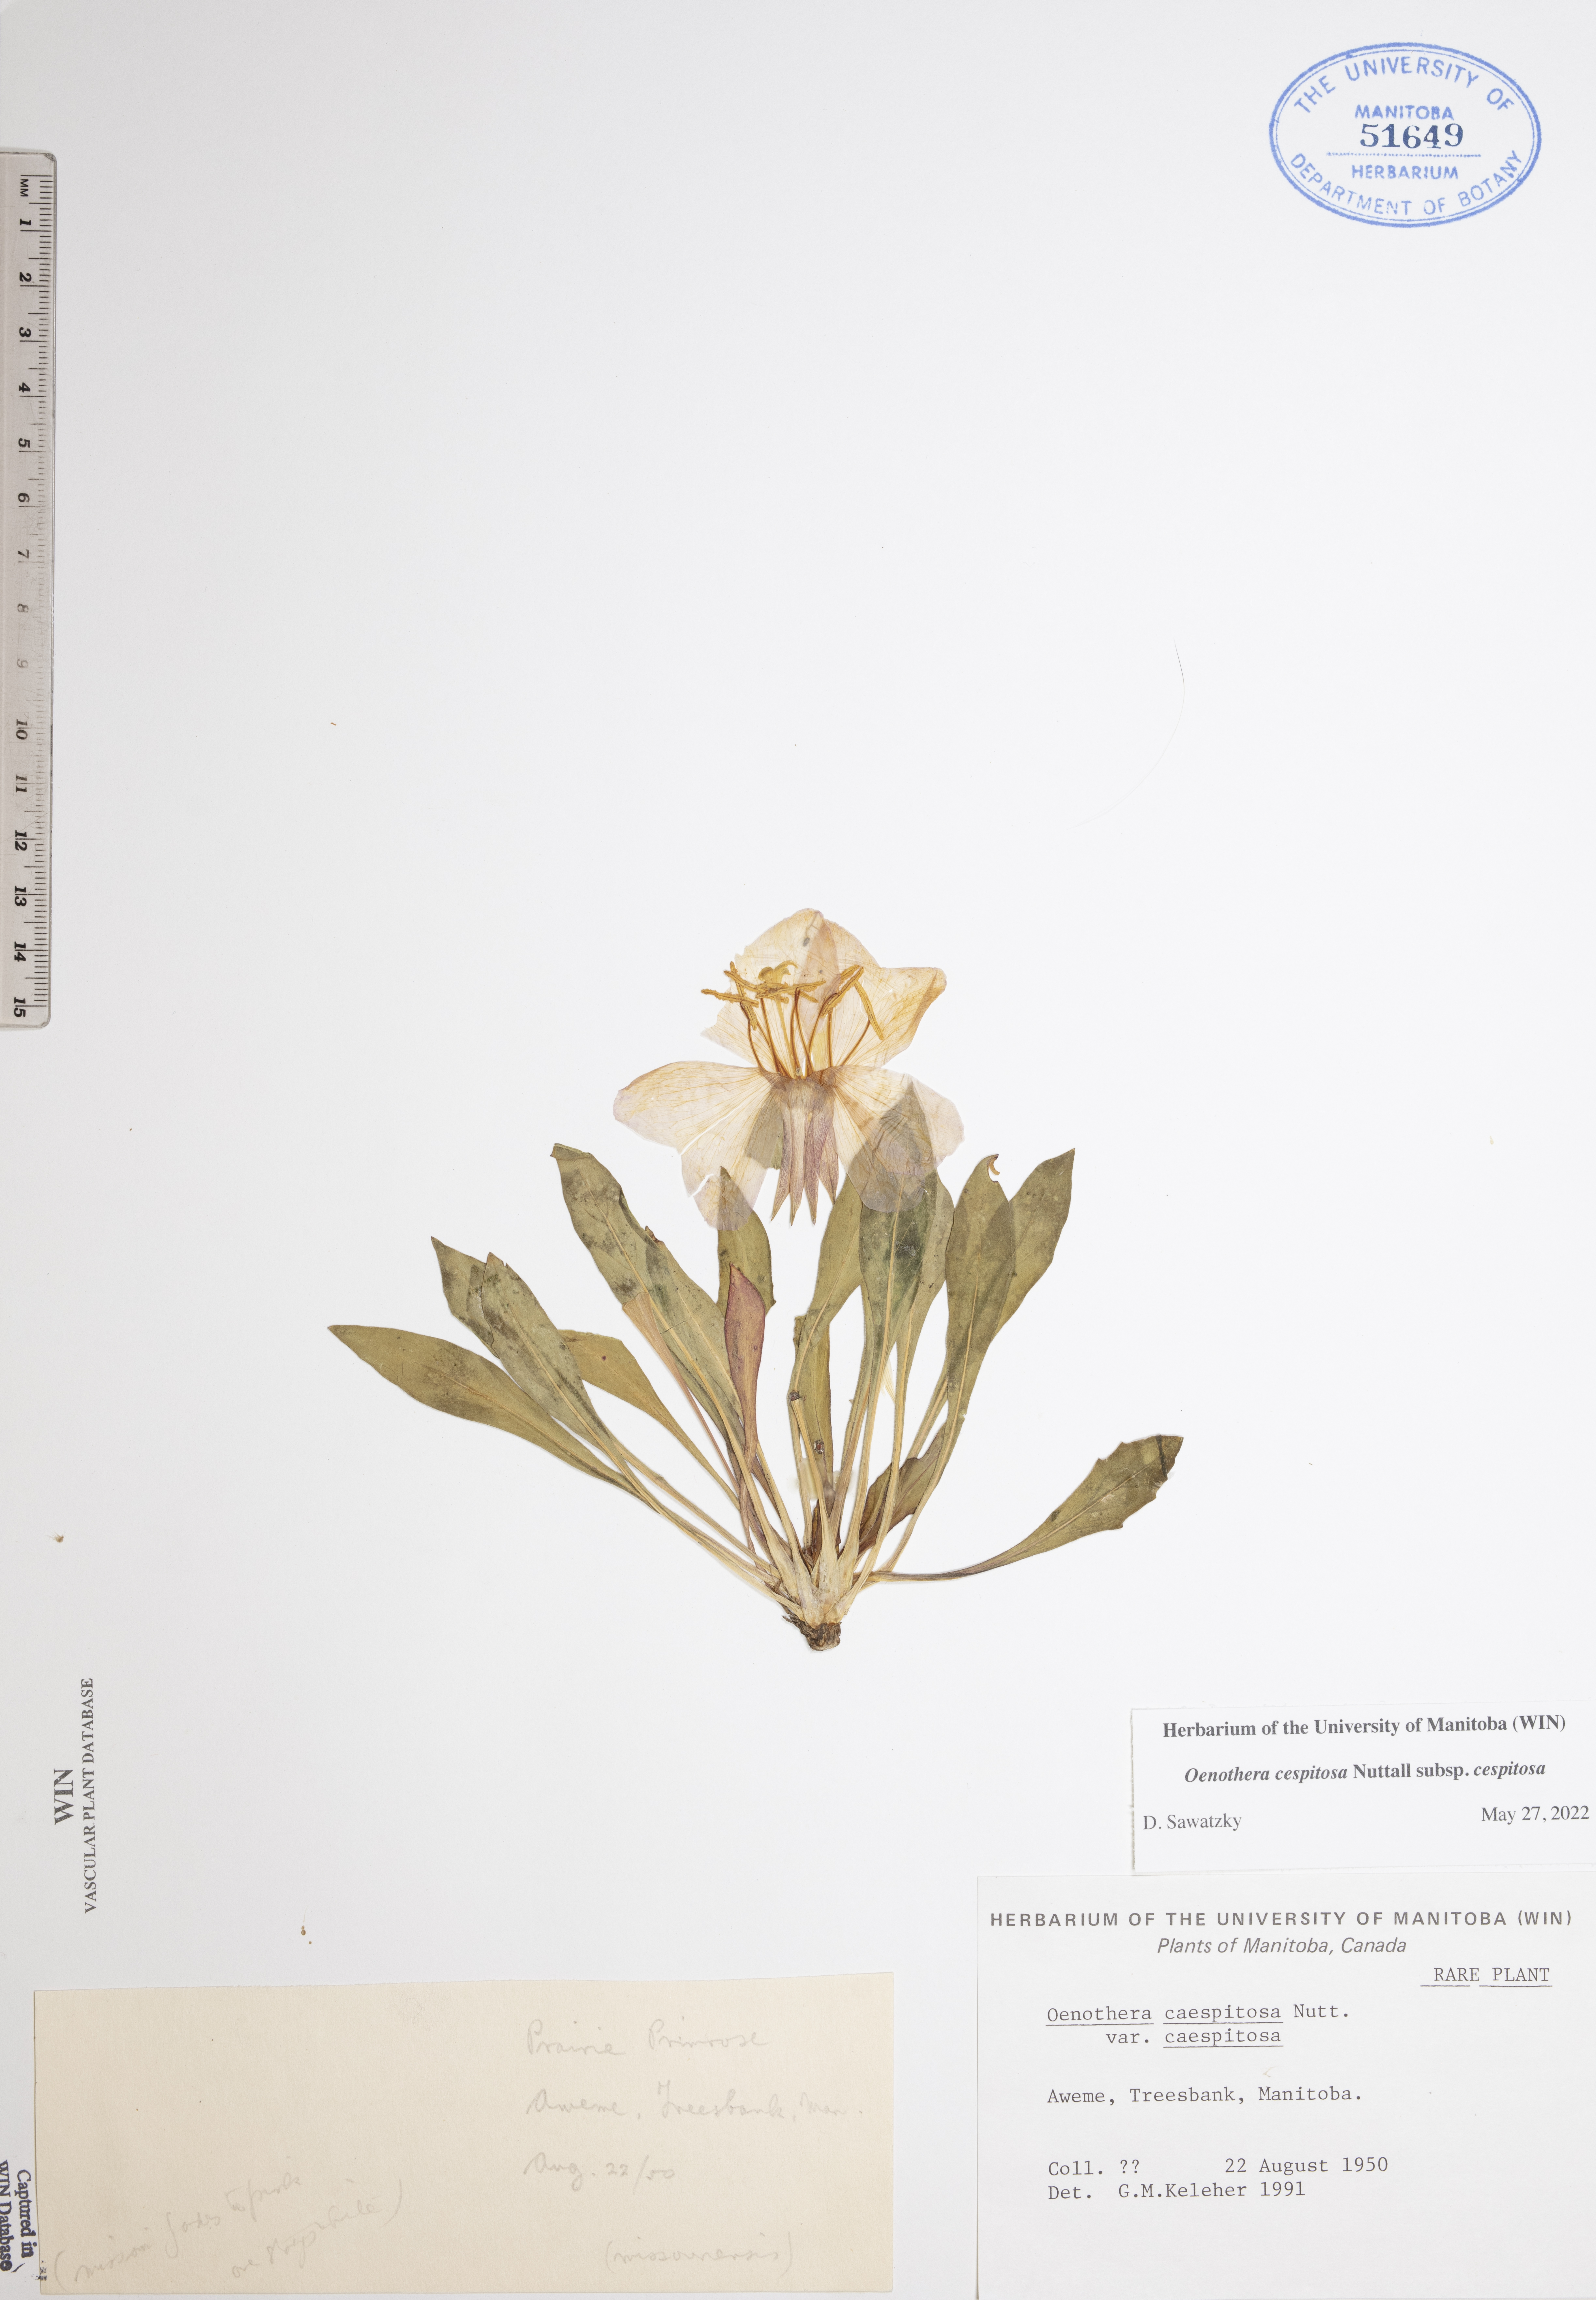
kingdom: Plantae
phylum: Tracheophyta
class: Magnoliopsida
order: Myrtales
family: Onagraceae
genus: Oenothera
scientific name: Oenothera cespitosa
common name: Tufted evening-primrose
